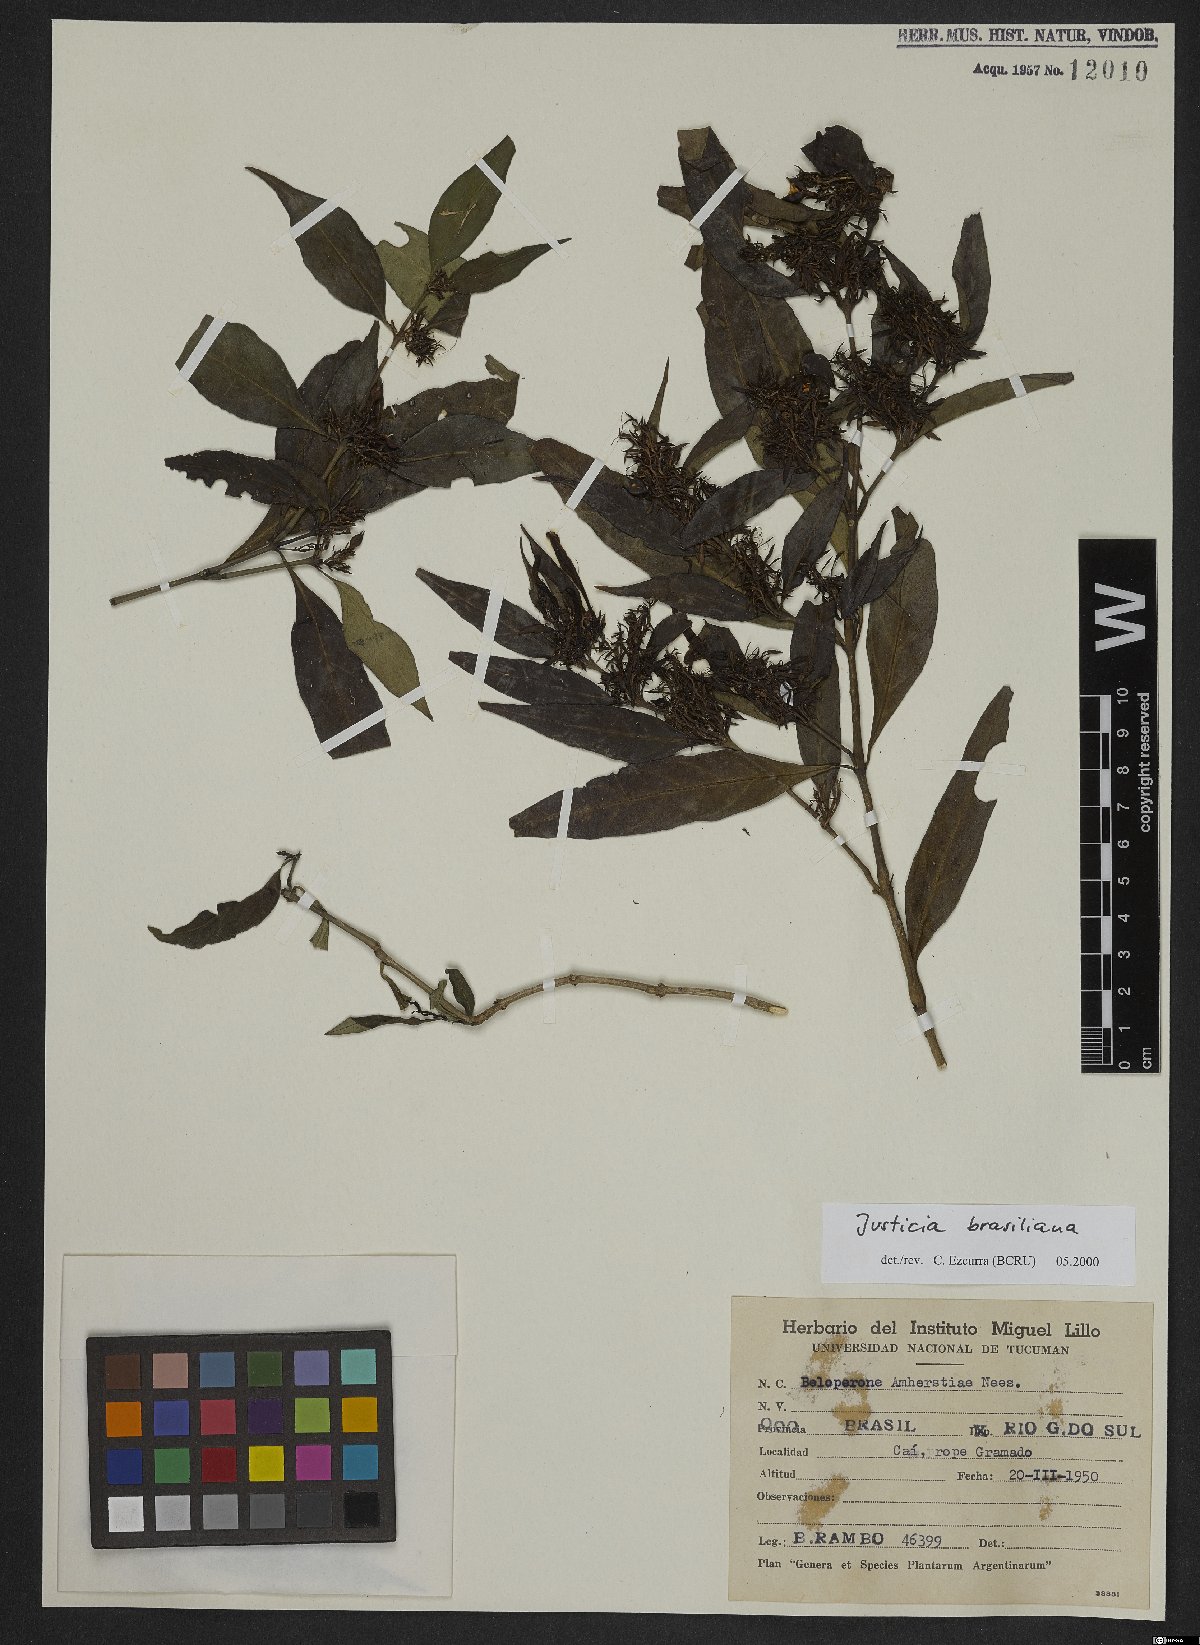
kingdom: Plantae
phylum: Tracheophyta
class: Magnoliopsida
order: Lamiales
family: Acanthaceae
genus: Justicia
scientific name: Justicia brasiliana
